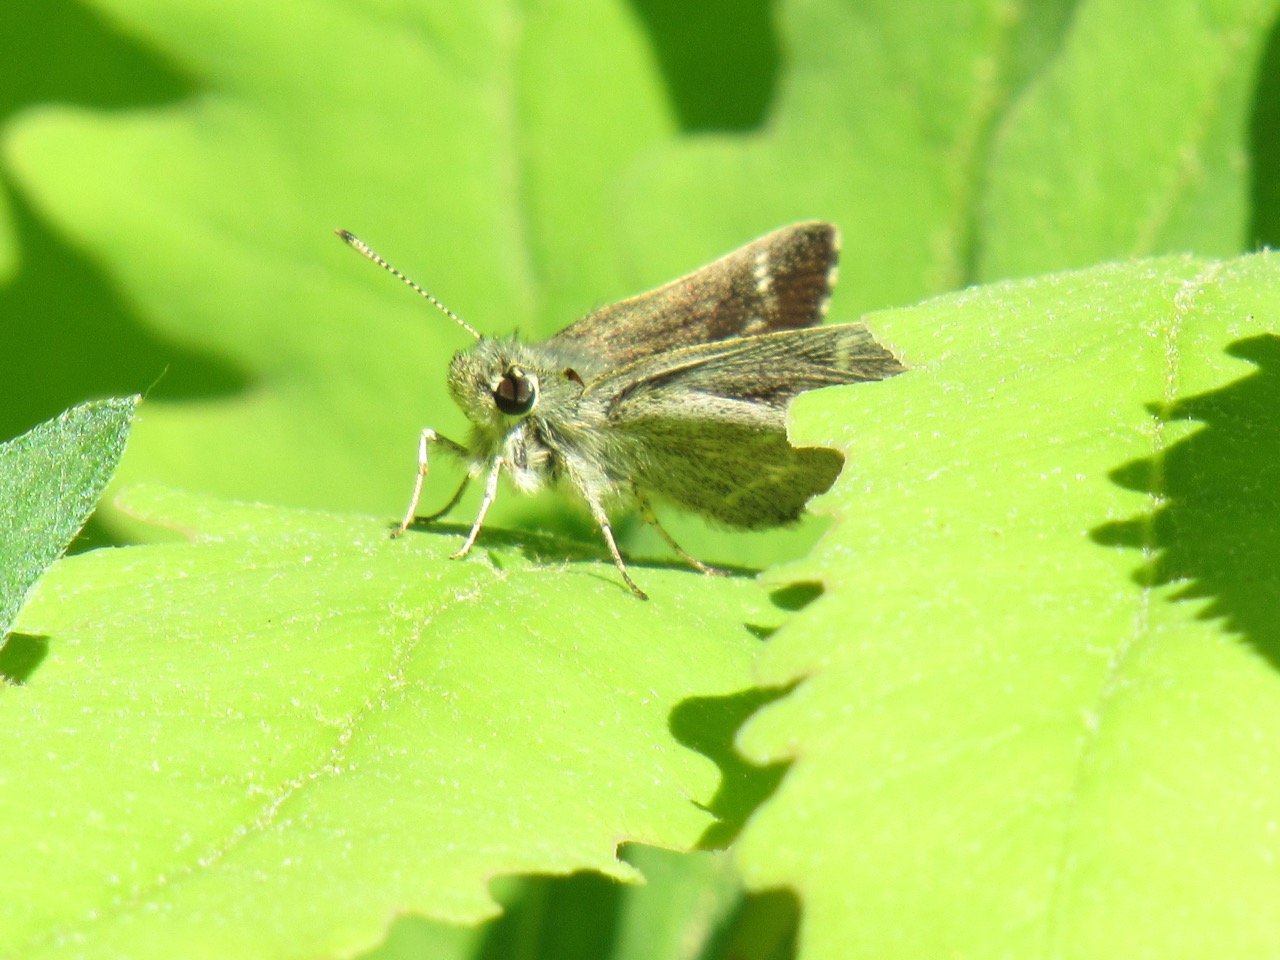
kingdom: Animalia
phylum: Arthropoda
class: Insecta
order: Lepidoptera
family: Hesperiidae
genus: Mastor
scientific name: Mastor hegon
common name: Pepper and Salt Skipper
